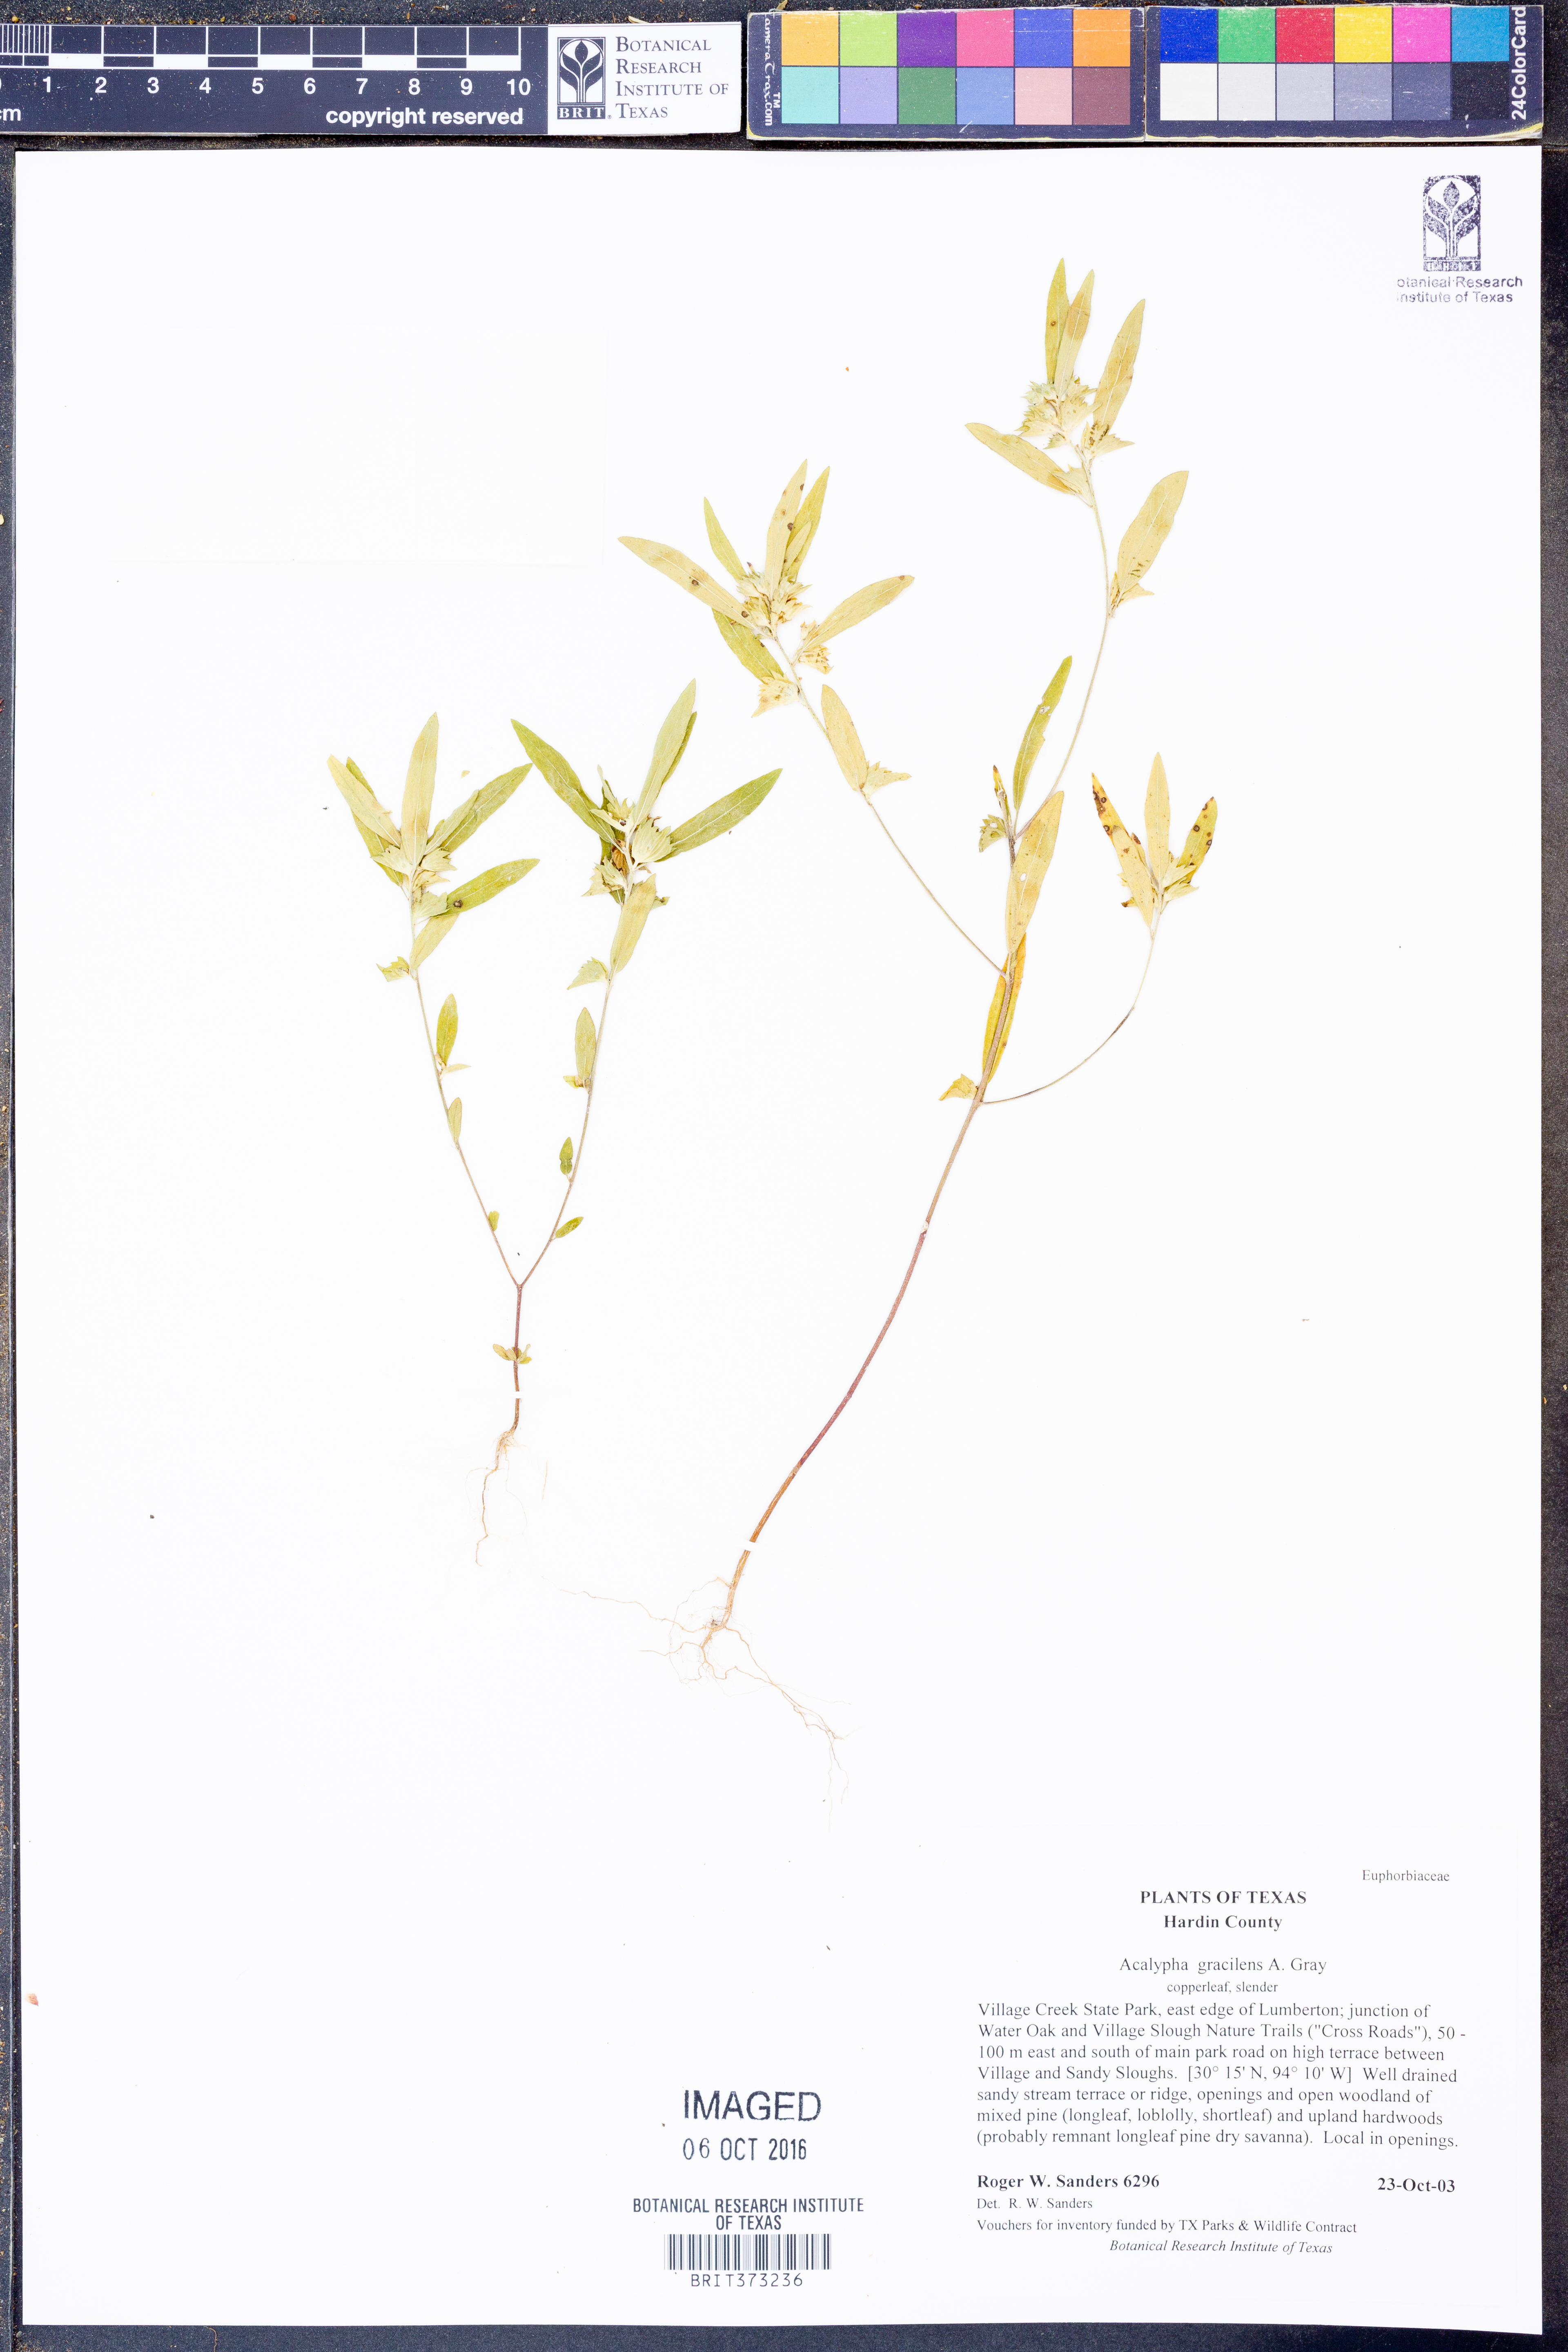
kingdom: Plantae
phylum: Tracheophyta
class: Magnoliopsida
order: Malpighiales
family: Euphorbiaceae
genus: Acalypha
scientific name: Acalypha gracilens
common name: Slender three-seeded mercury
